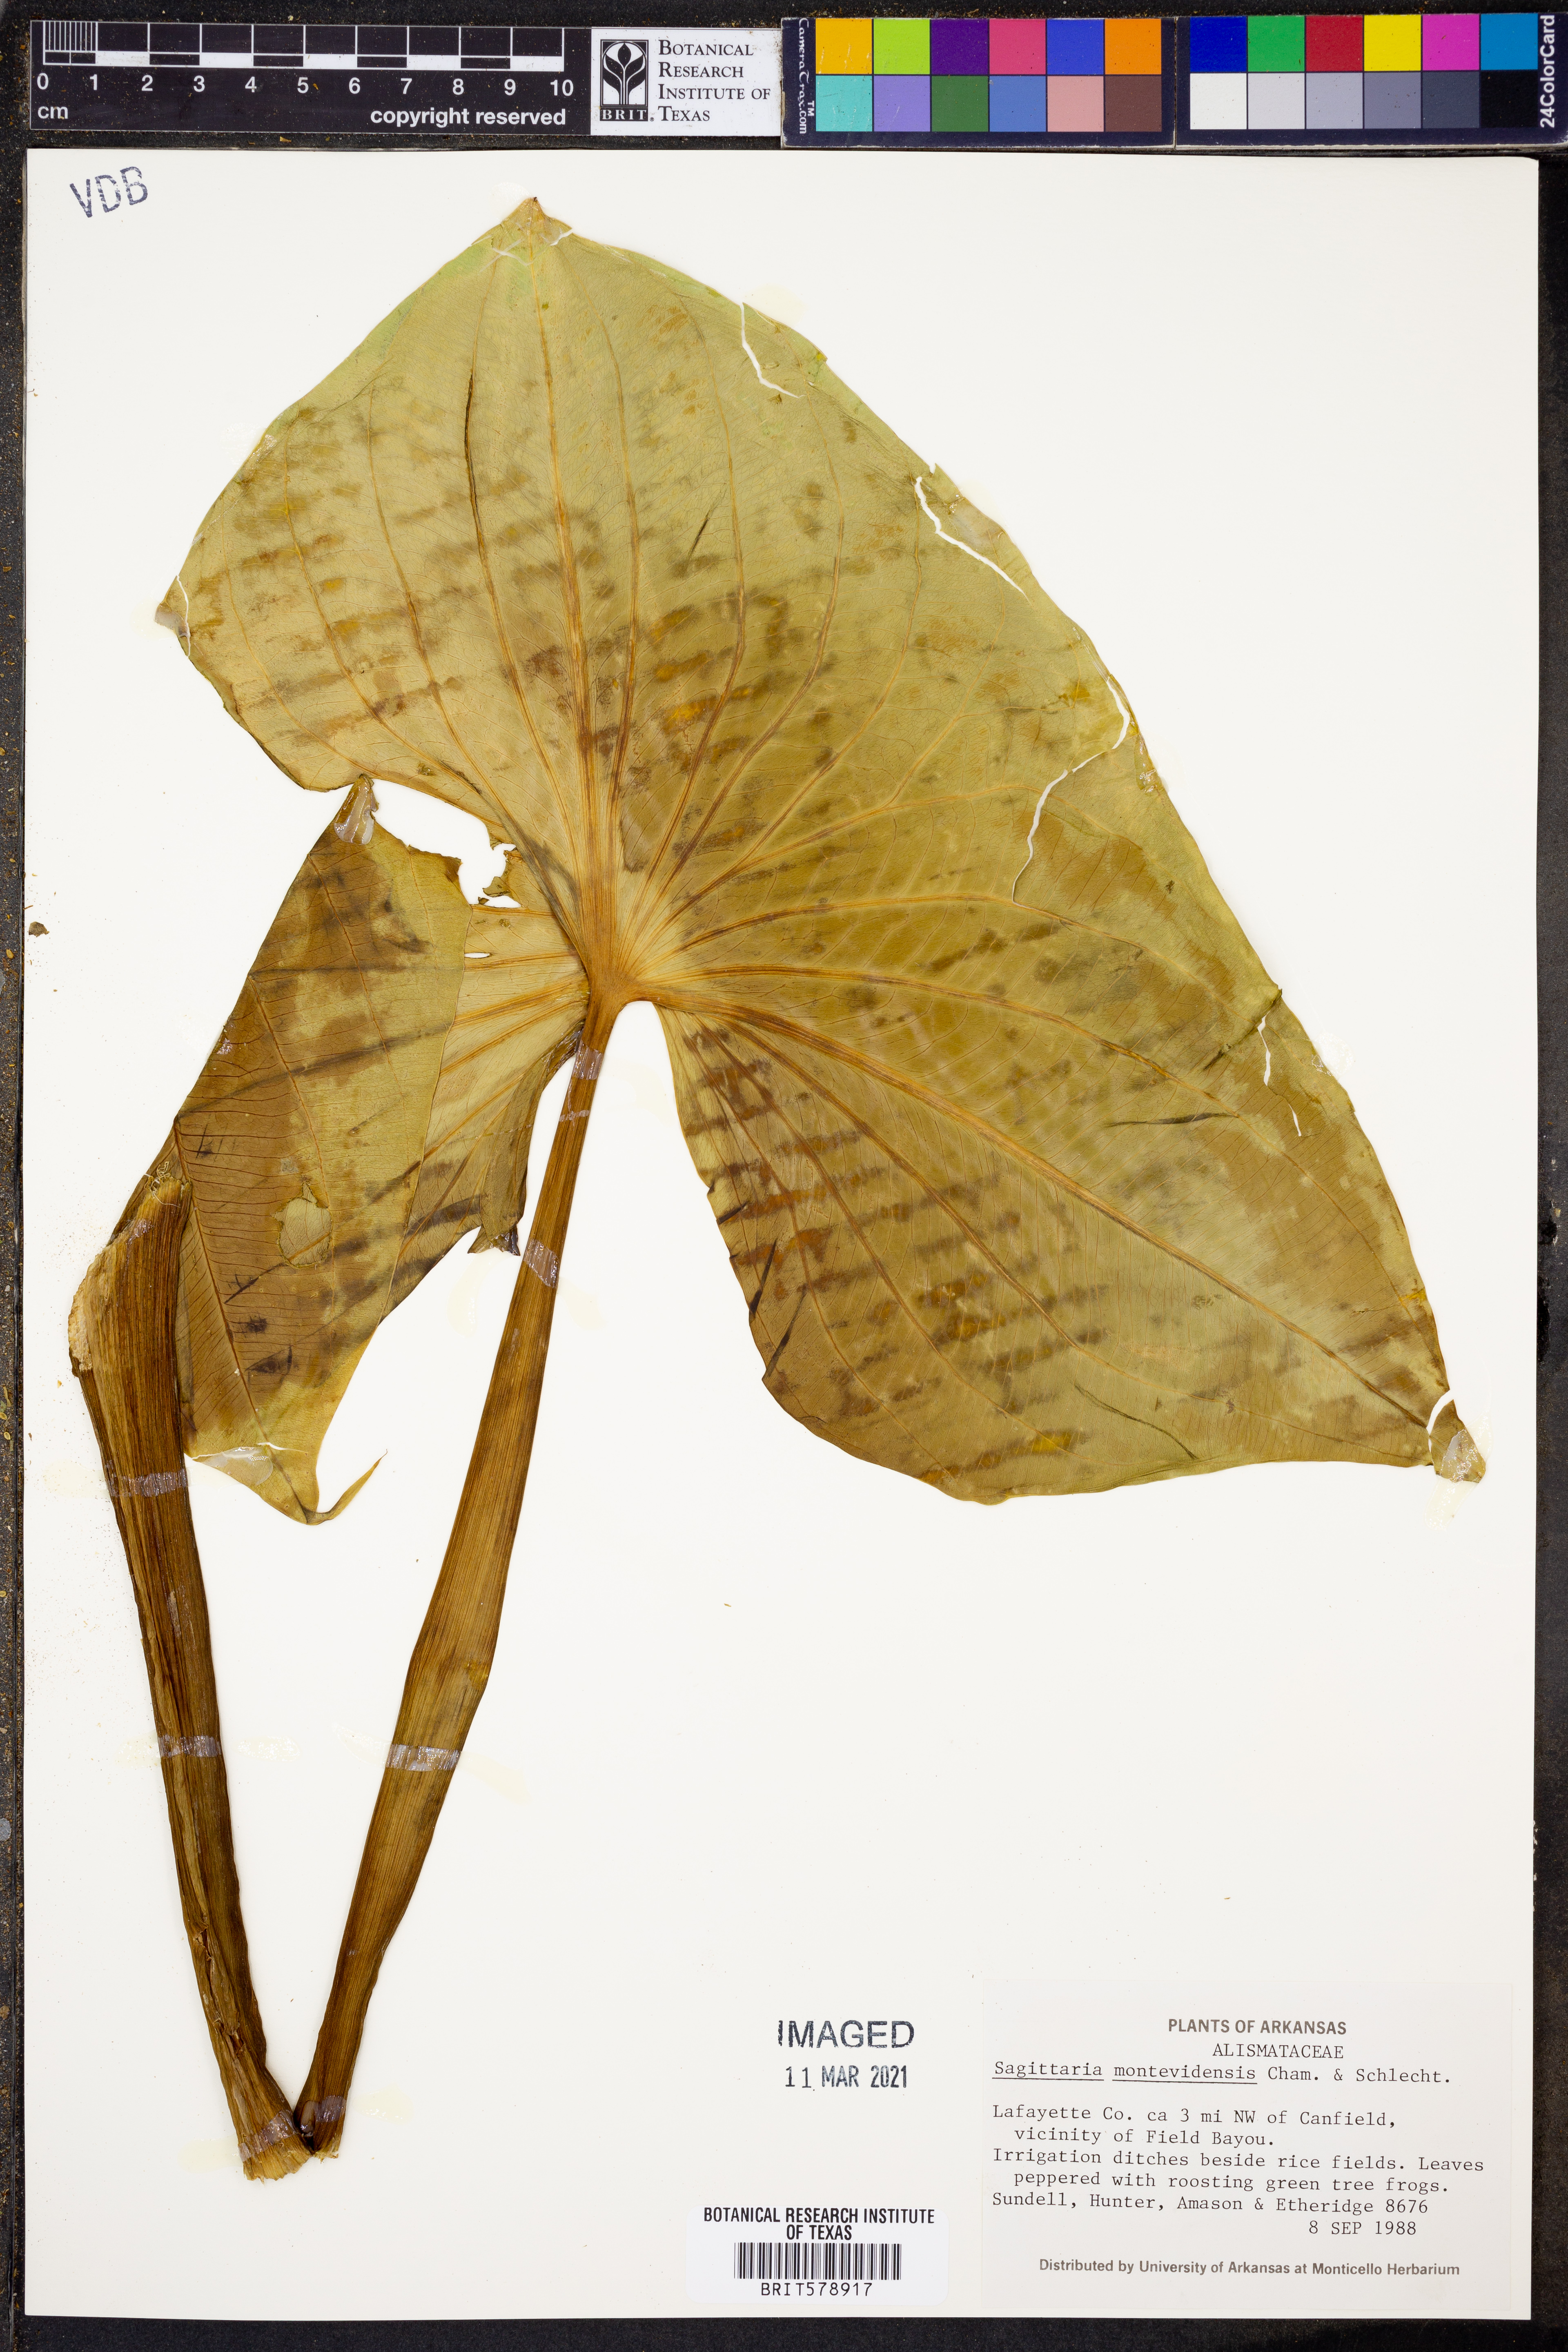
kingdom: Plantae
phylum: Tracheophyta
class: Liliopsida
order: Alismatales
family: Alismataceae
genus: Sagittaria
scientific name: Sagittaria montevidensis
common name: Giant arrowhead
